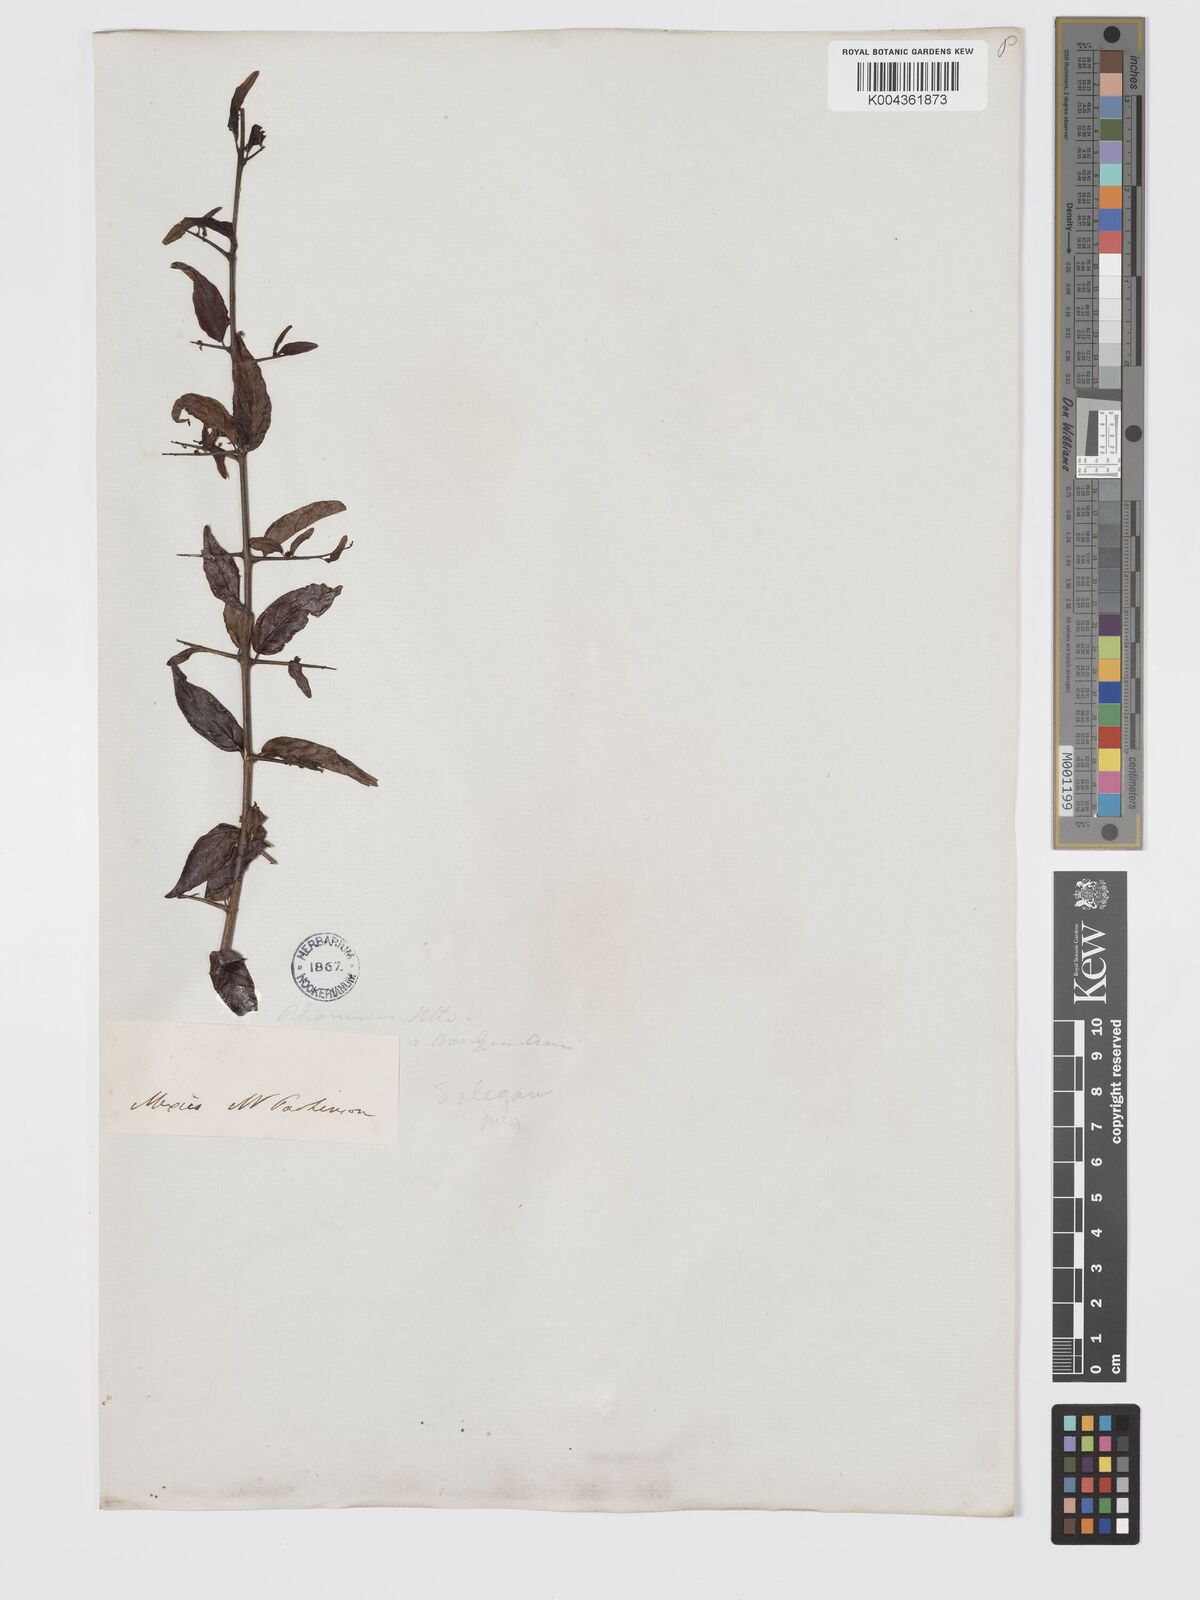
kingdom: Plantae
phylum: Tracheophyta
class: Magnoliopsida
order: Rosales
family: Rhamnaceae
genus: Sageretia
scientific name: Sageretia wrightii
